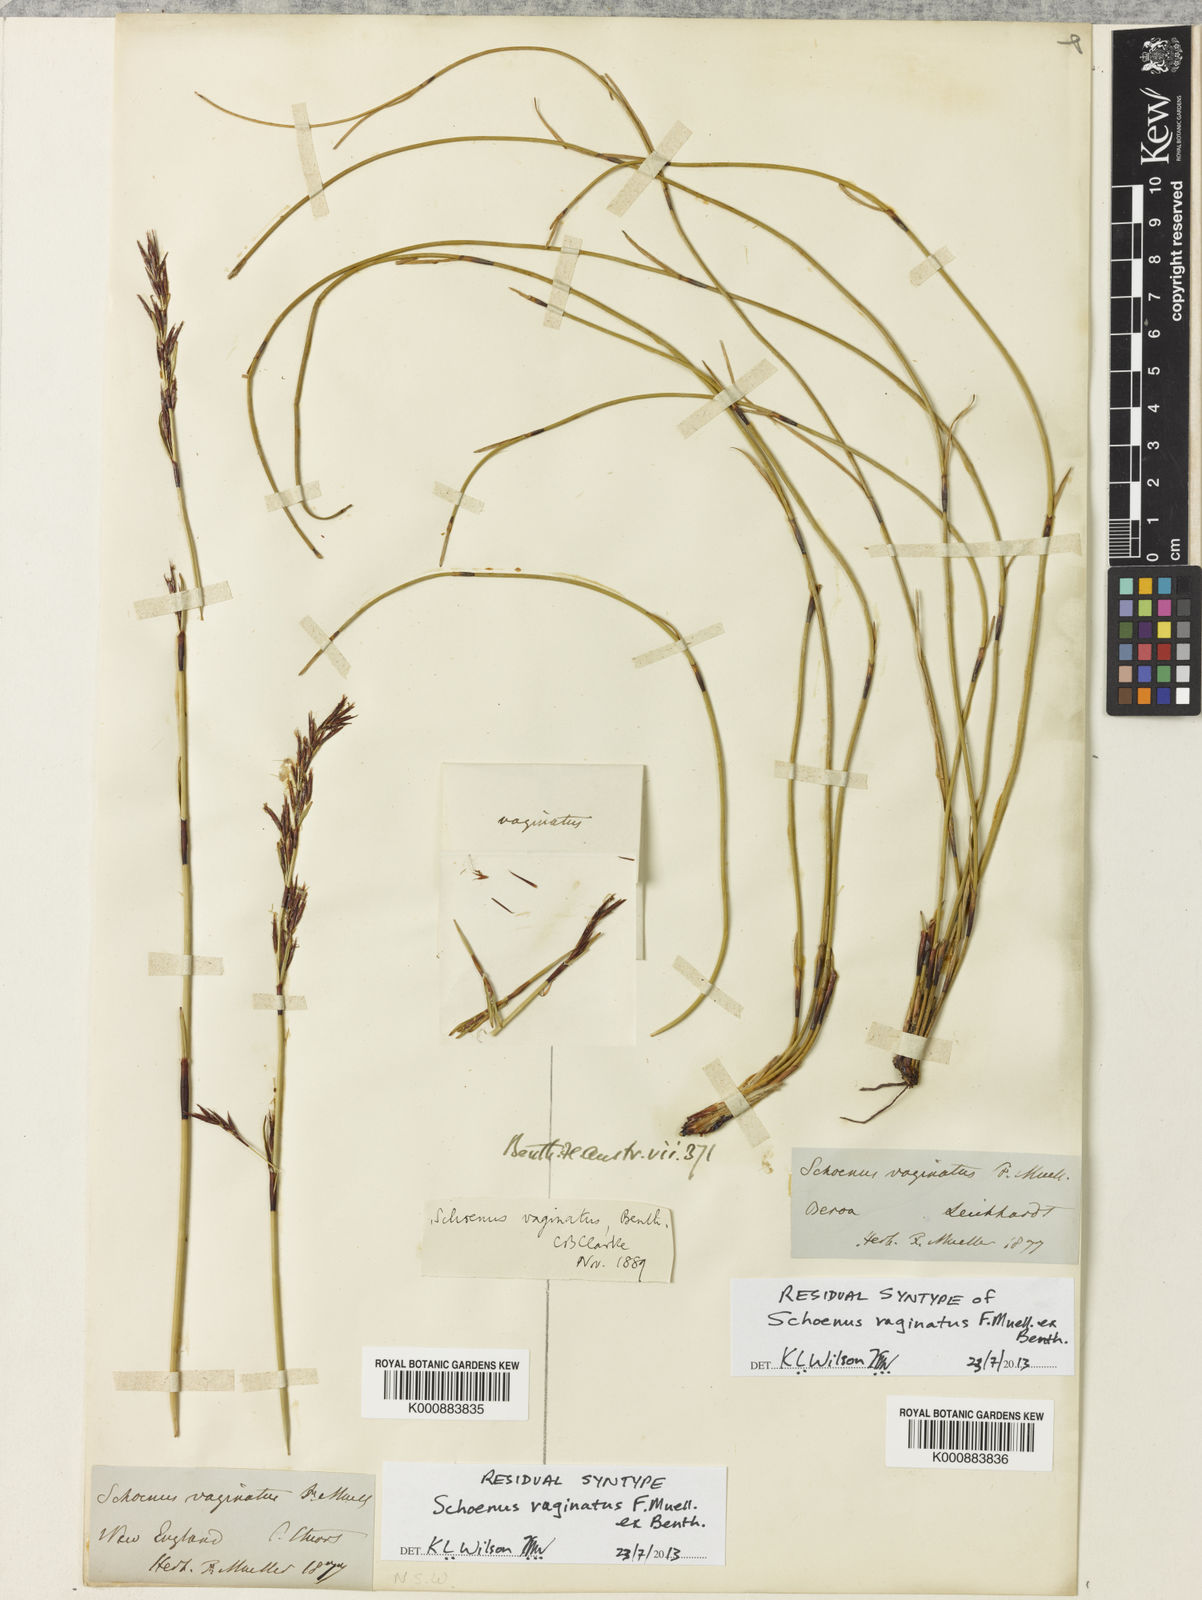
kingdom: Plantae
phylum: Tracheophyta
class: Liliopsida
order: Poales
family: Cyperaceae
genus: Schoenus
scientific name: Schoenus vaginatus
